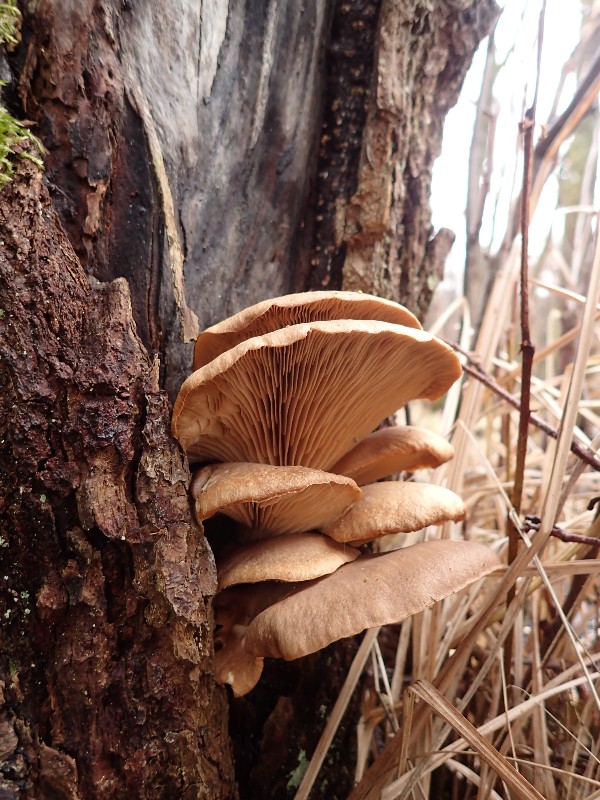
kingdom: Fungi
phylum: Basidiomycota
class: Agaricomycetes
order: Agaricales
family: Pleurotaceae
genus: Pleurotus
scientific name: Pleurotus ostreatus
